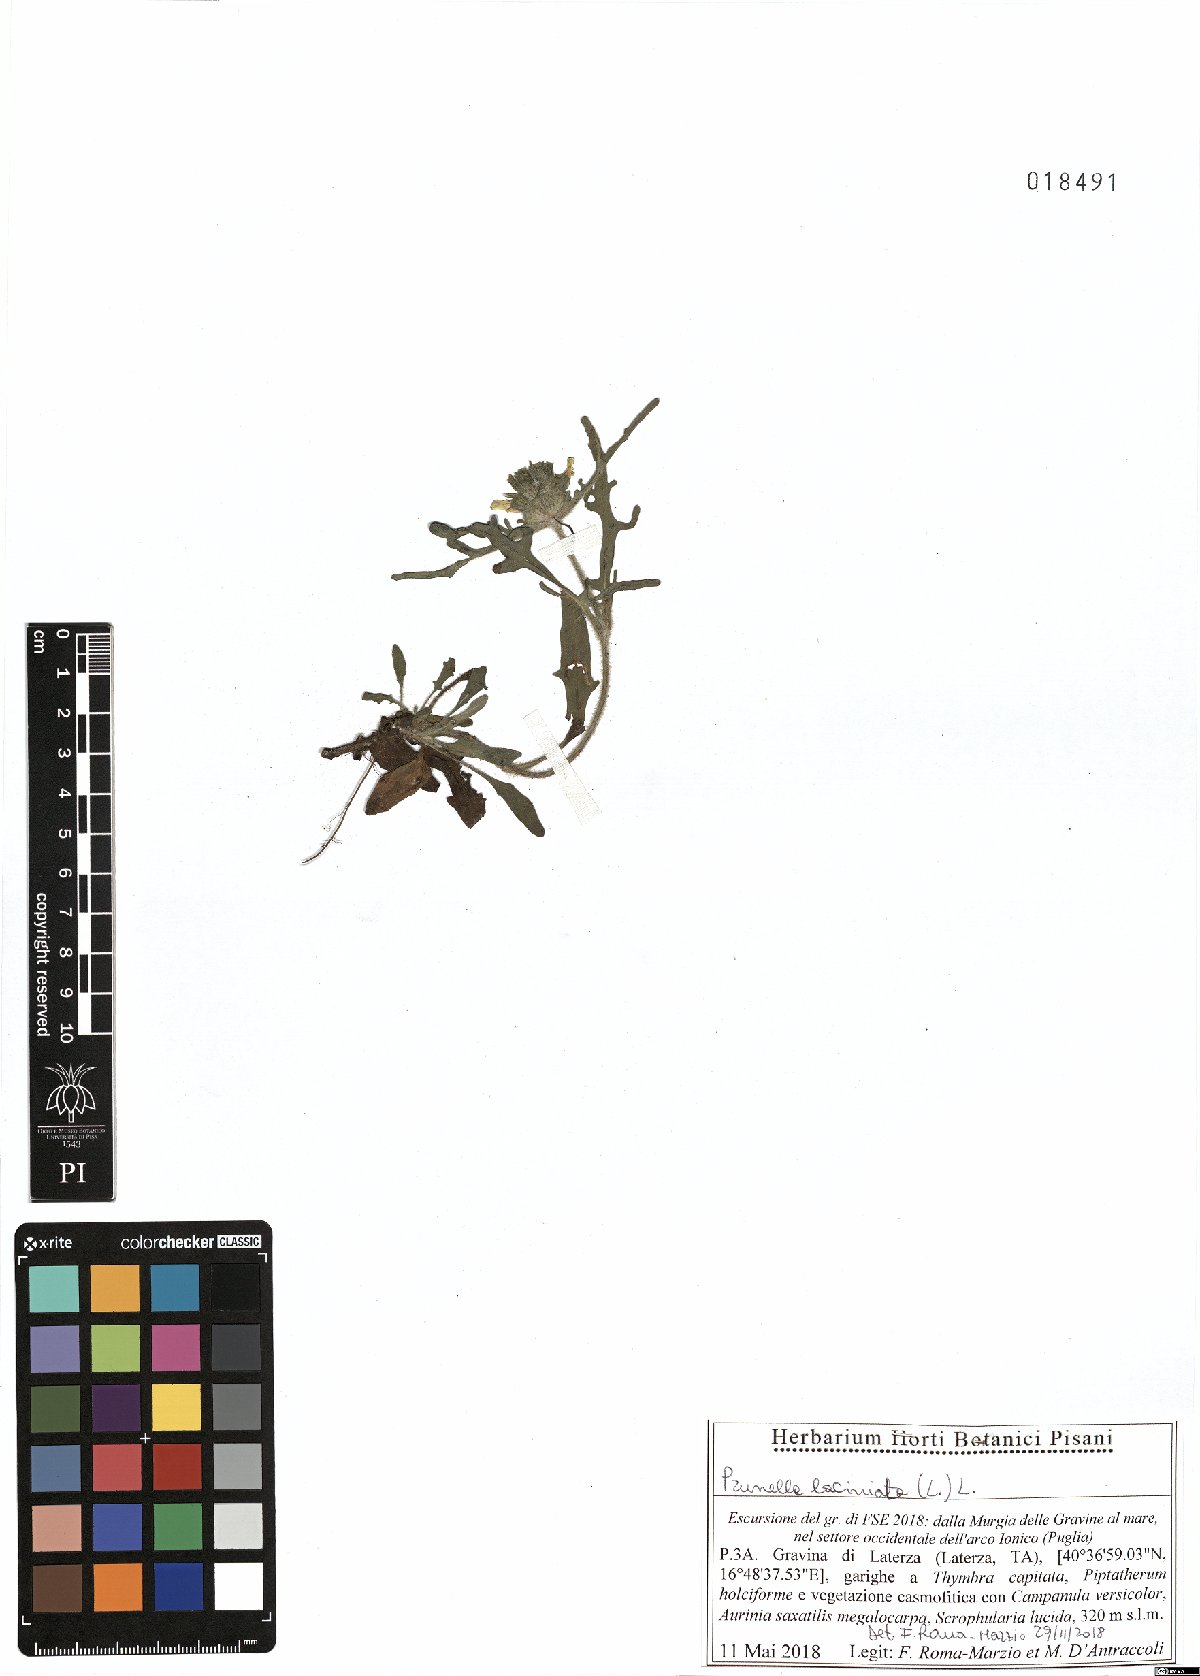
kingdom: Plantae
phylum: Tracheophyta
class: Magnoliopsida
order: Lamiales
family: Lamiaceae
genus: Prunella
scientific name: Prunella laciniata
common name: Cut-leaved selfheal
